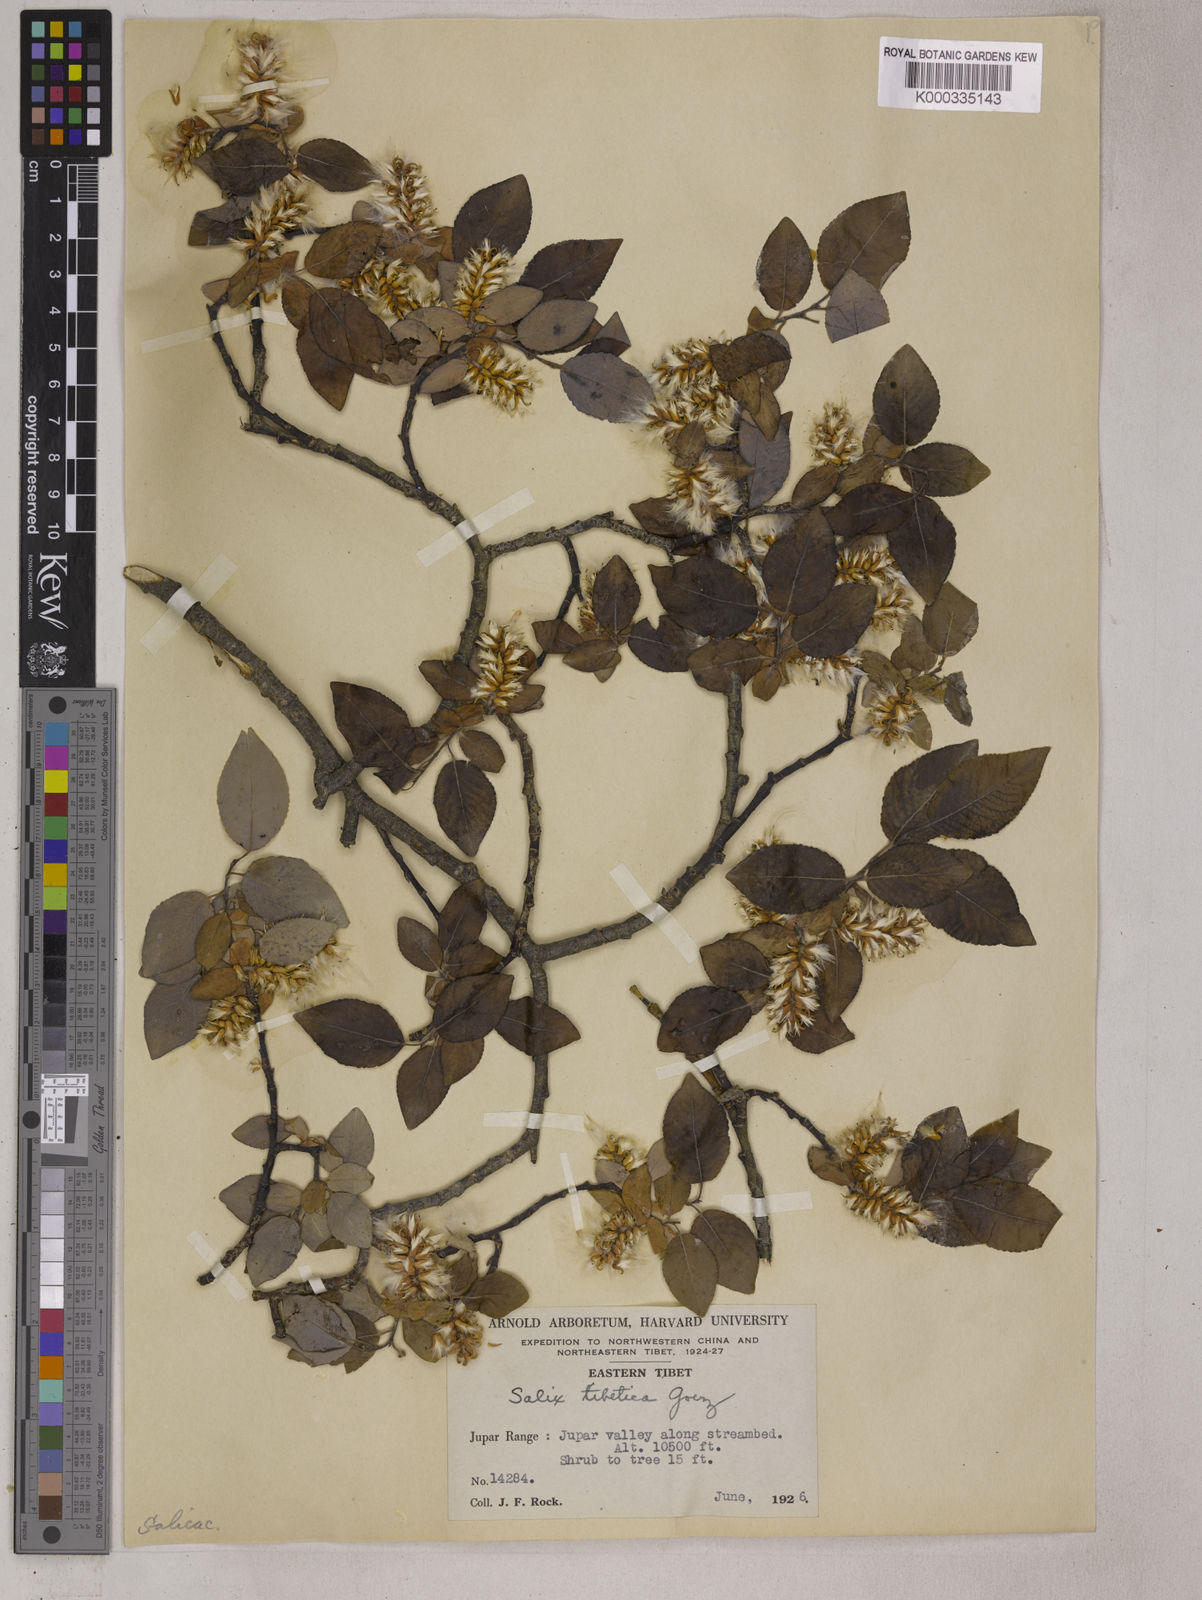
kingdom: Plantae
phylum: Tracheophyta
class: Magnoliopsida
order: Malpighiales
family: Salicaceae
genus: Salix
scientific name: Salix
